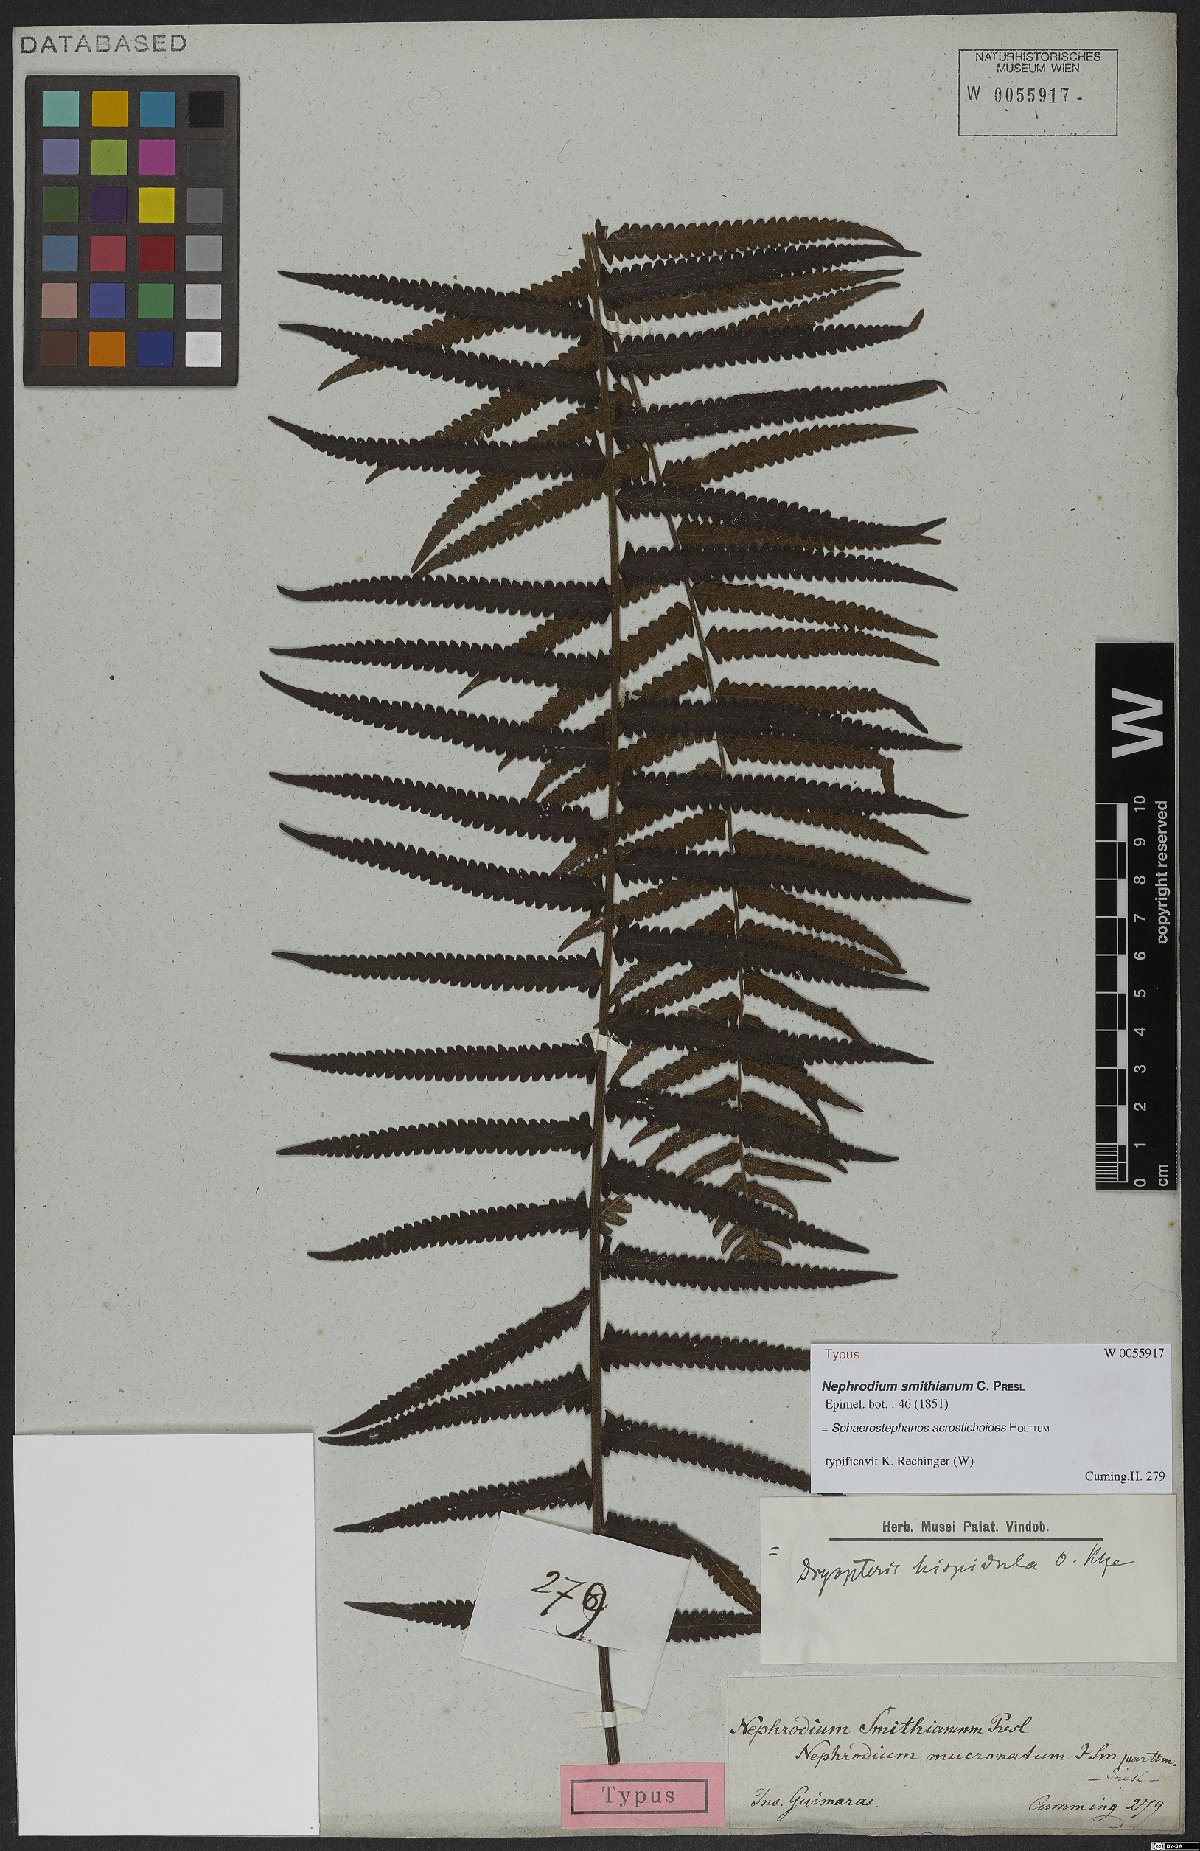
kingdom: Plantae
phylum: Tracheophyta
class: Polypodiopsida
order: Polypodiales
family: Thelypteridaceae
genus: Sphaerostephanos
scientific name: Sphaerostephanos acrostichoides
